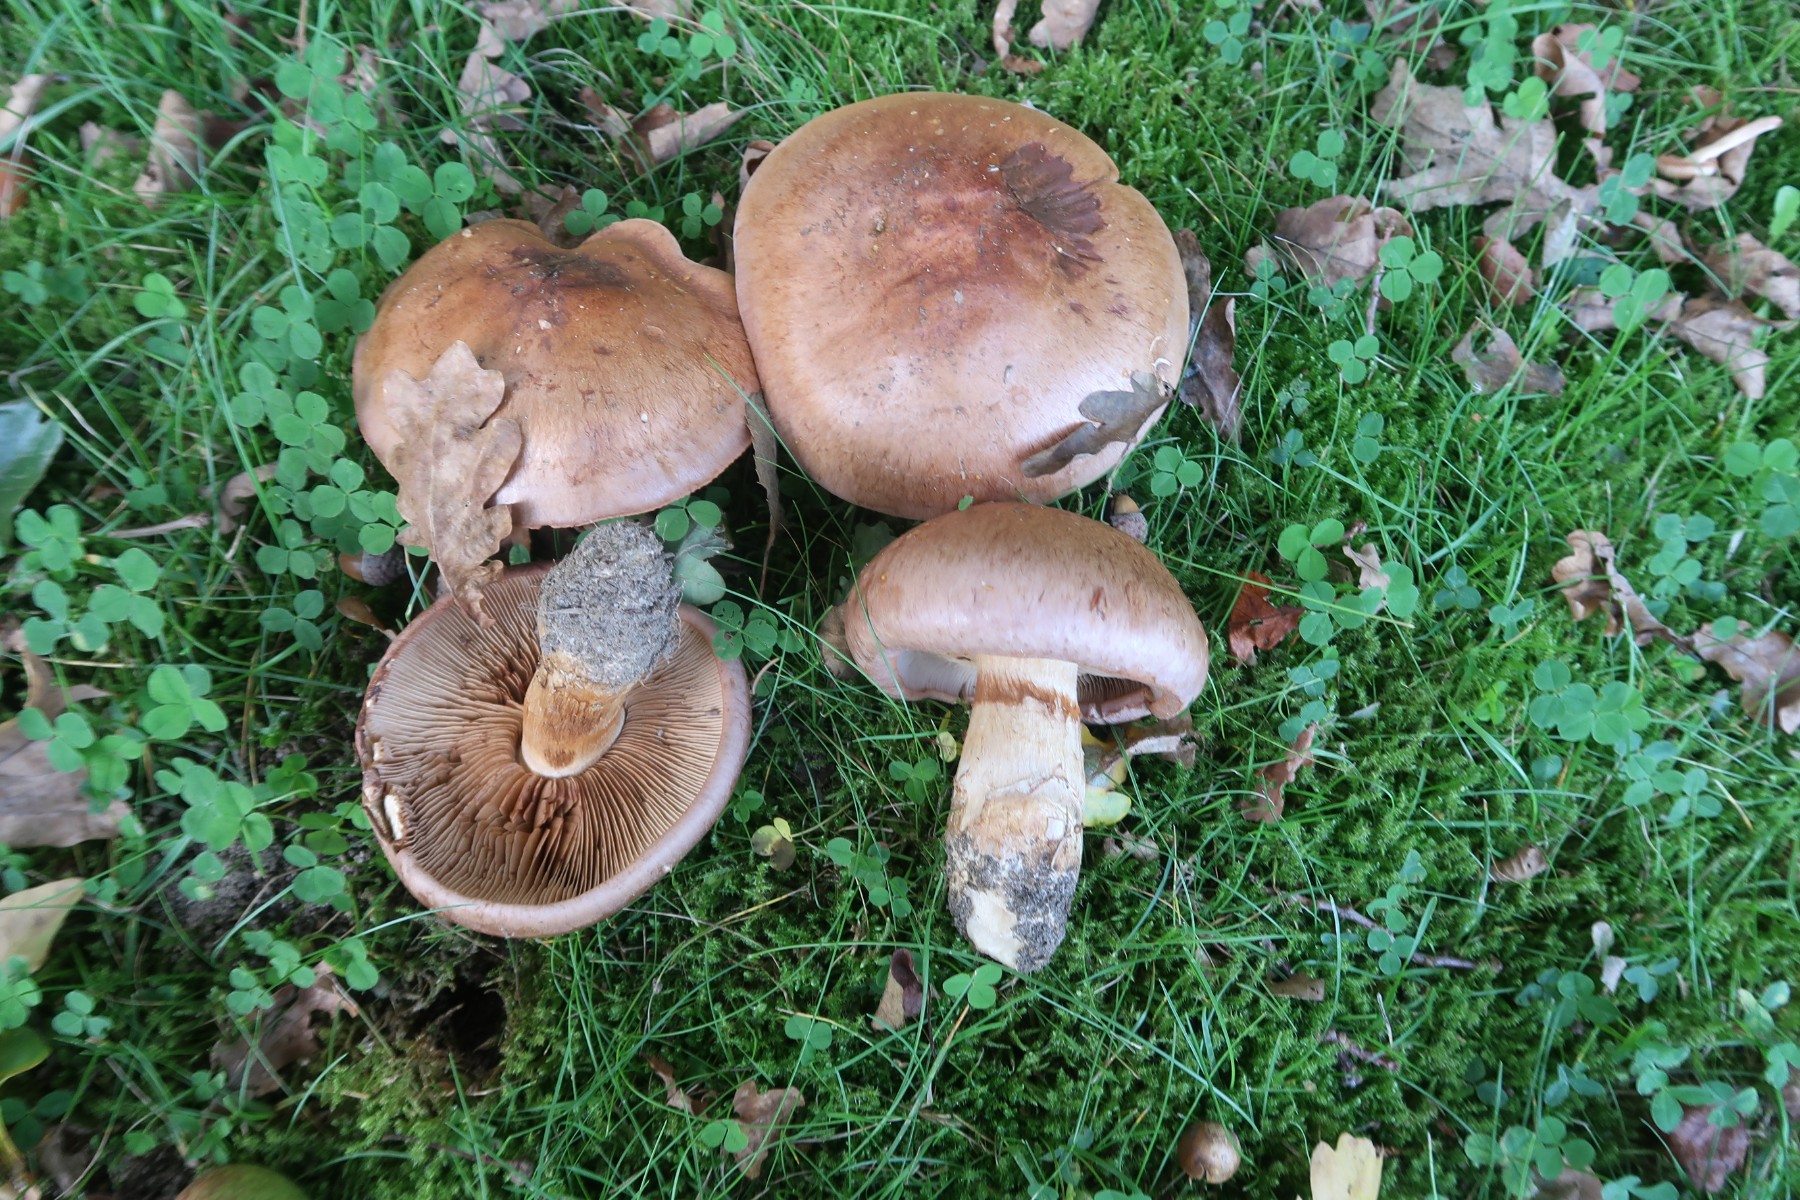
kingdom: Fungi
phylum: Basidiomycota
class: Agaricomycetes
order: Agaricales
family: Cortinariaceae
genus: Phlegmacium
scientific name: Phlegmacium balteatocumatile
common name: violettrådet slørhat
